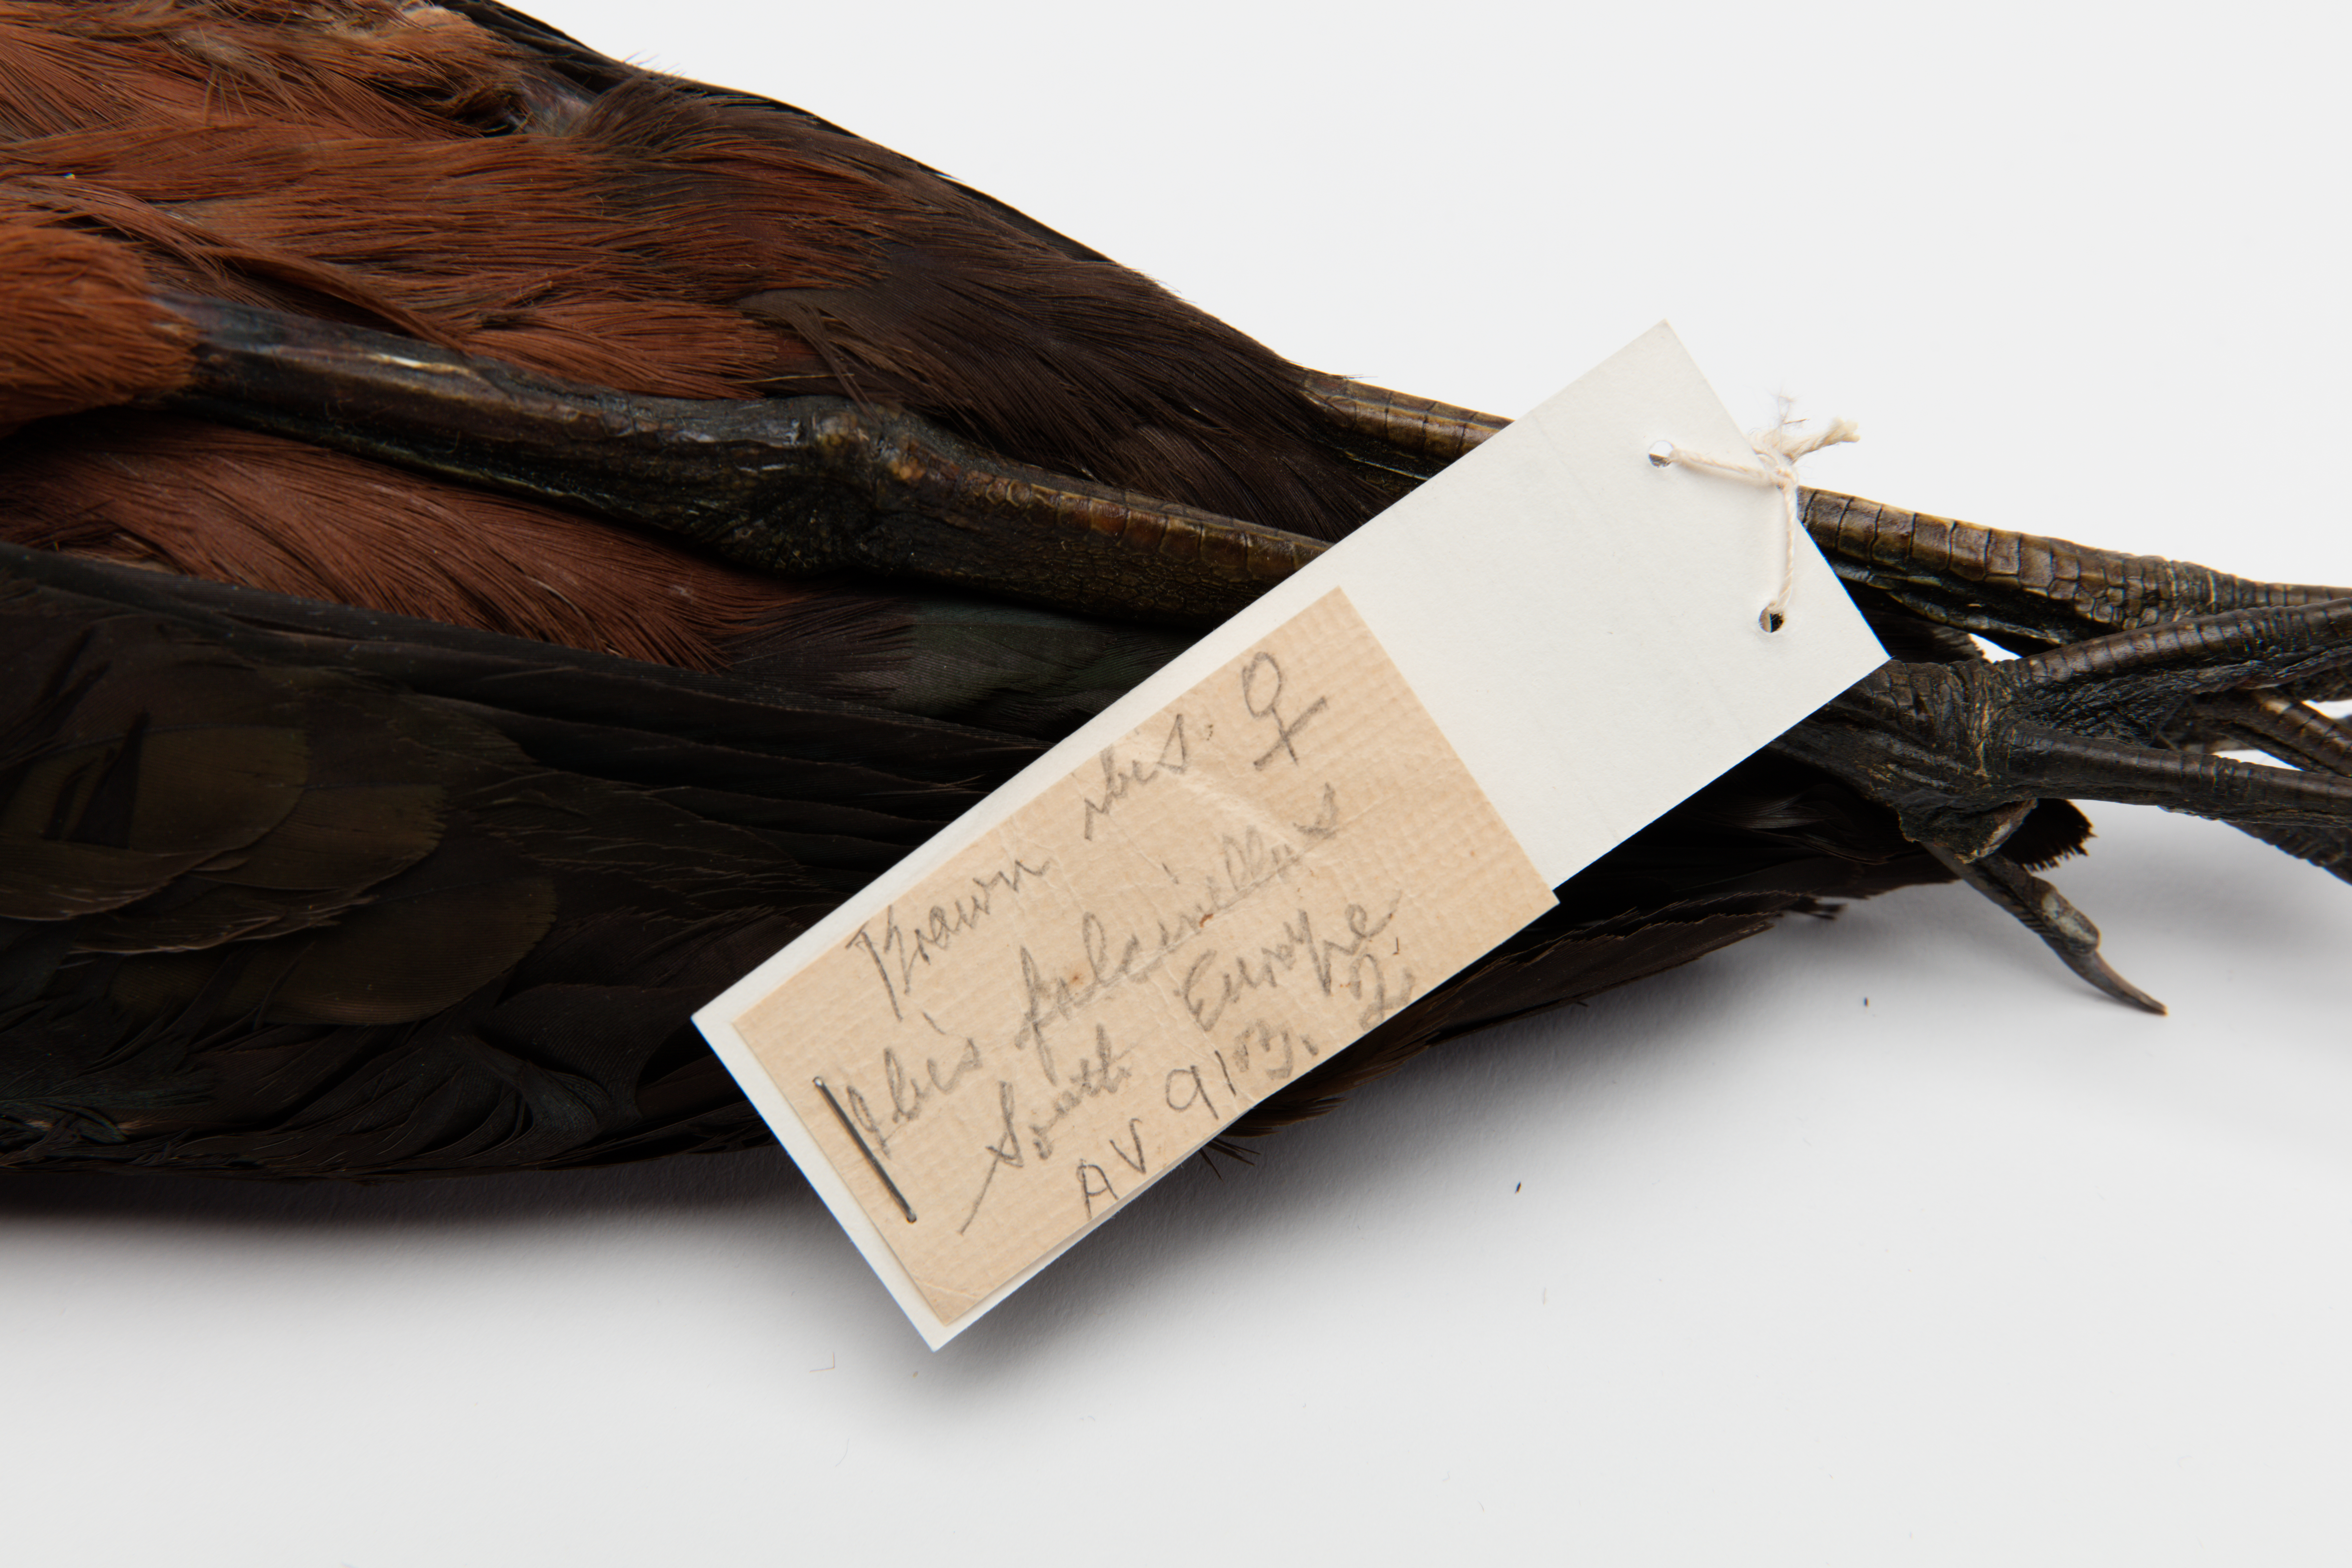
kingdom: Animalia
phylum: Chordata
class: Aves
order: Pelecaniformes
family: Threskiornithidae
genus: Plegadis
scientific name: Plegadis falcinellus
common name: Glossy ibis
